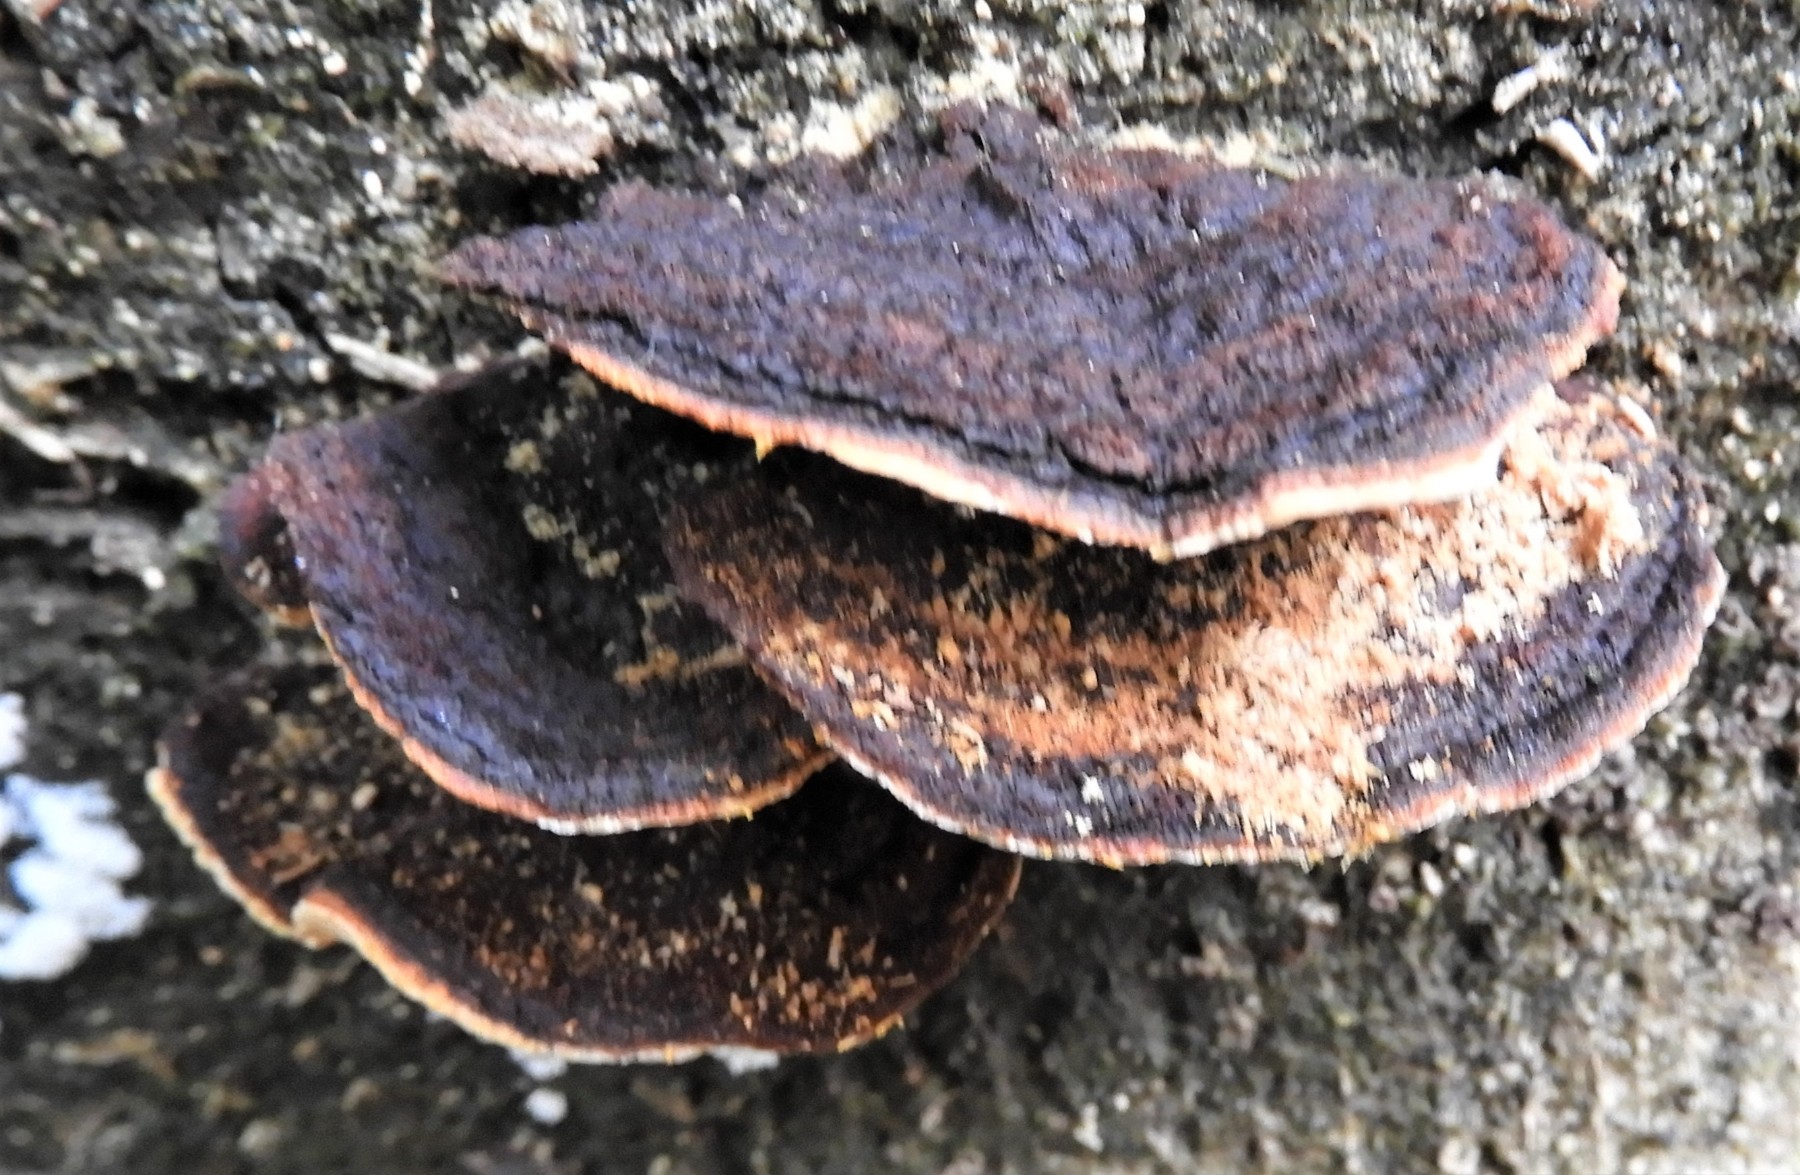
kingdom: Fungi
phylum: Basidiomycota
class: Agaricomycetes
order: Gloeophyllales
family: Gloeophyllaceae
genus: Gloeophyllum
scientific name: Gloeophyllum sepiarium
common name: fyrre-korkhat
